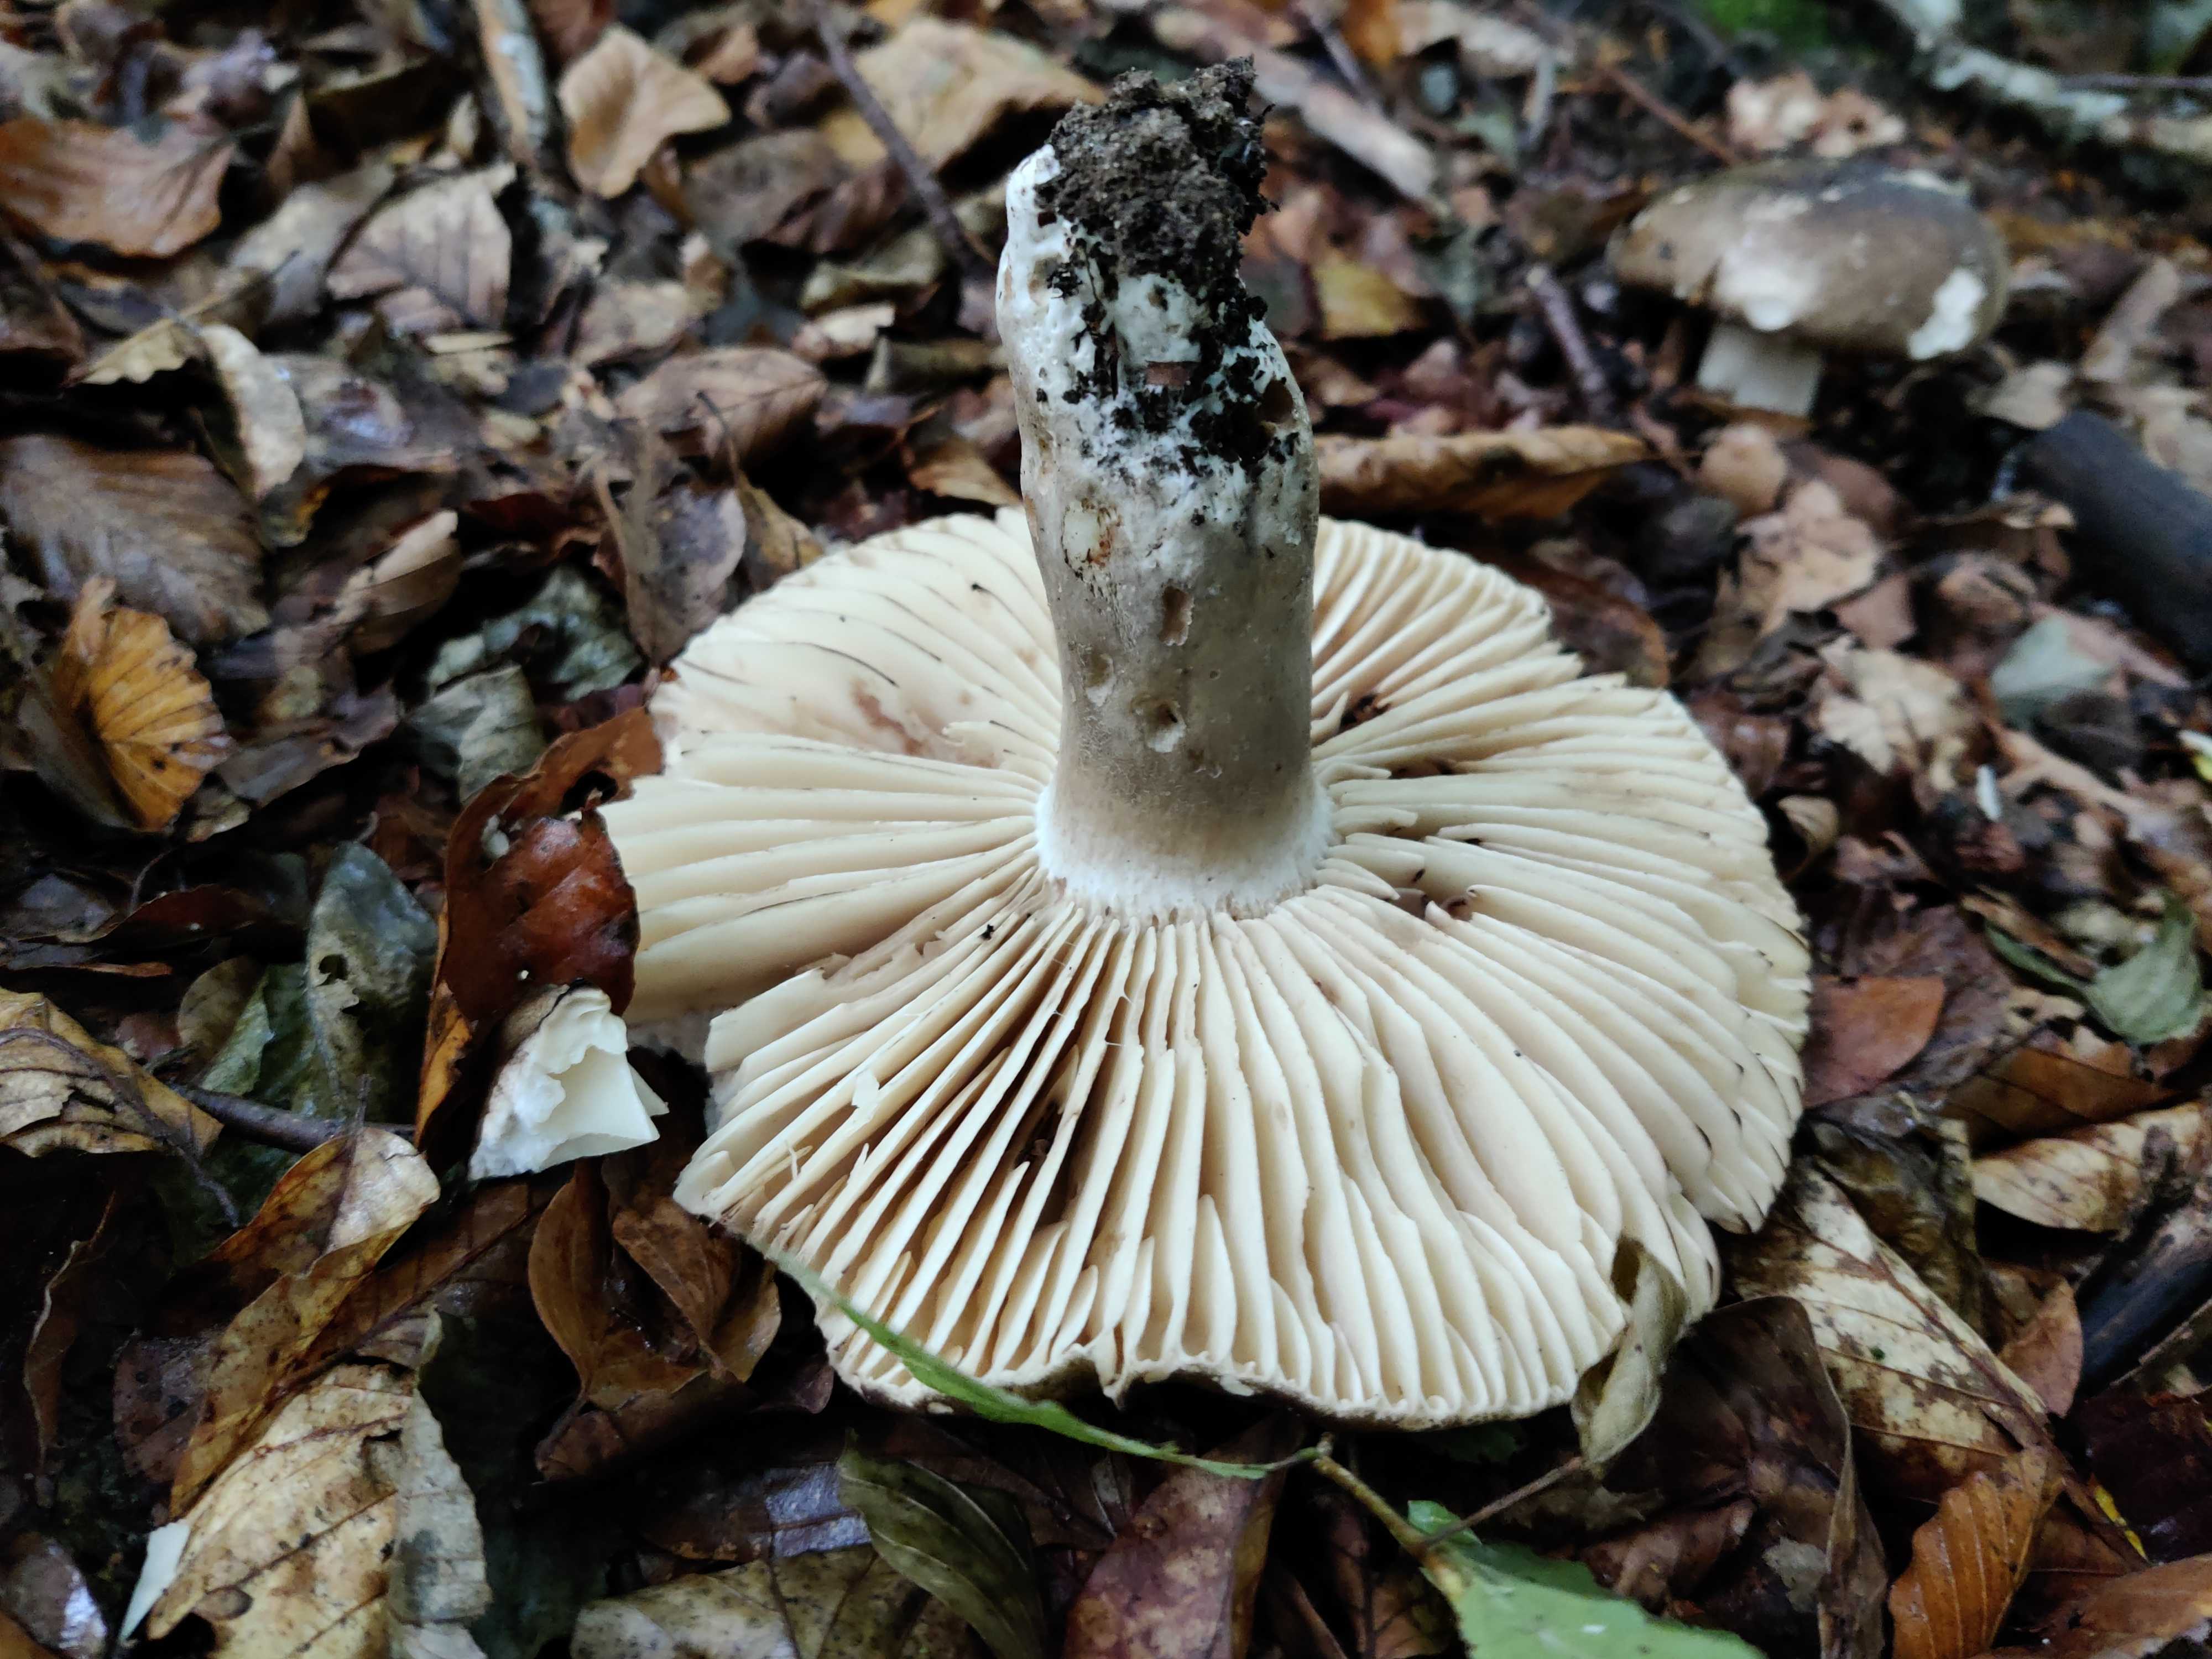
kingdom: Fungi
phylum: Basidiomycota
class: Agaricomycetes
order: Russulales
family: Russulaceae
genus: Russula
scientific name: Russula adusta
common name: sværtende skørhat
